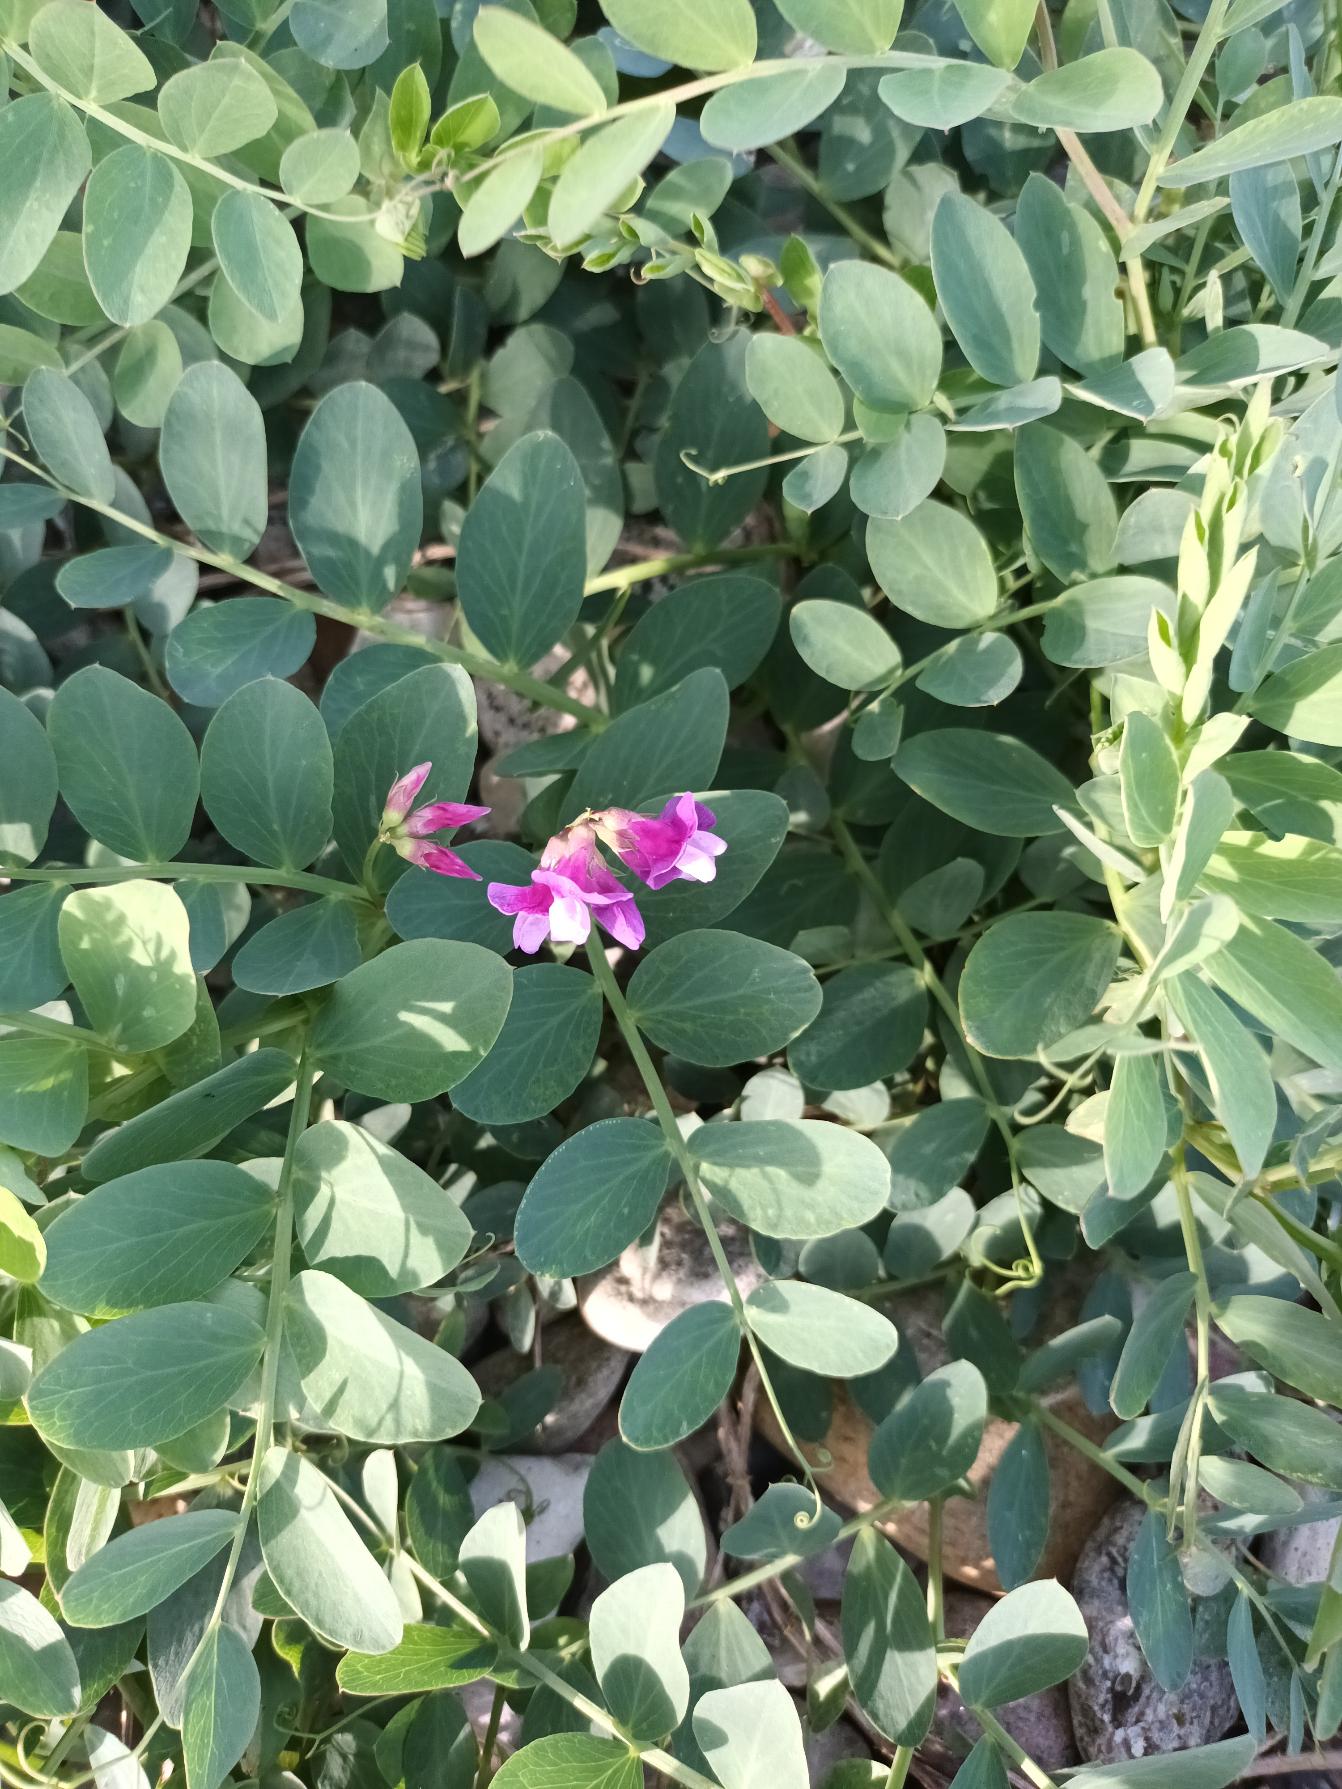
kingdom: Plantae
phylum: Tracheophyta
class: Magnoliopsida
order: Fabales
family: Fabaceae
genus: Lathyrus
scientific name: Lathyrus japonicus
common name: Strand-fladbælg
